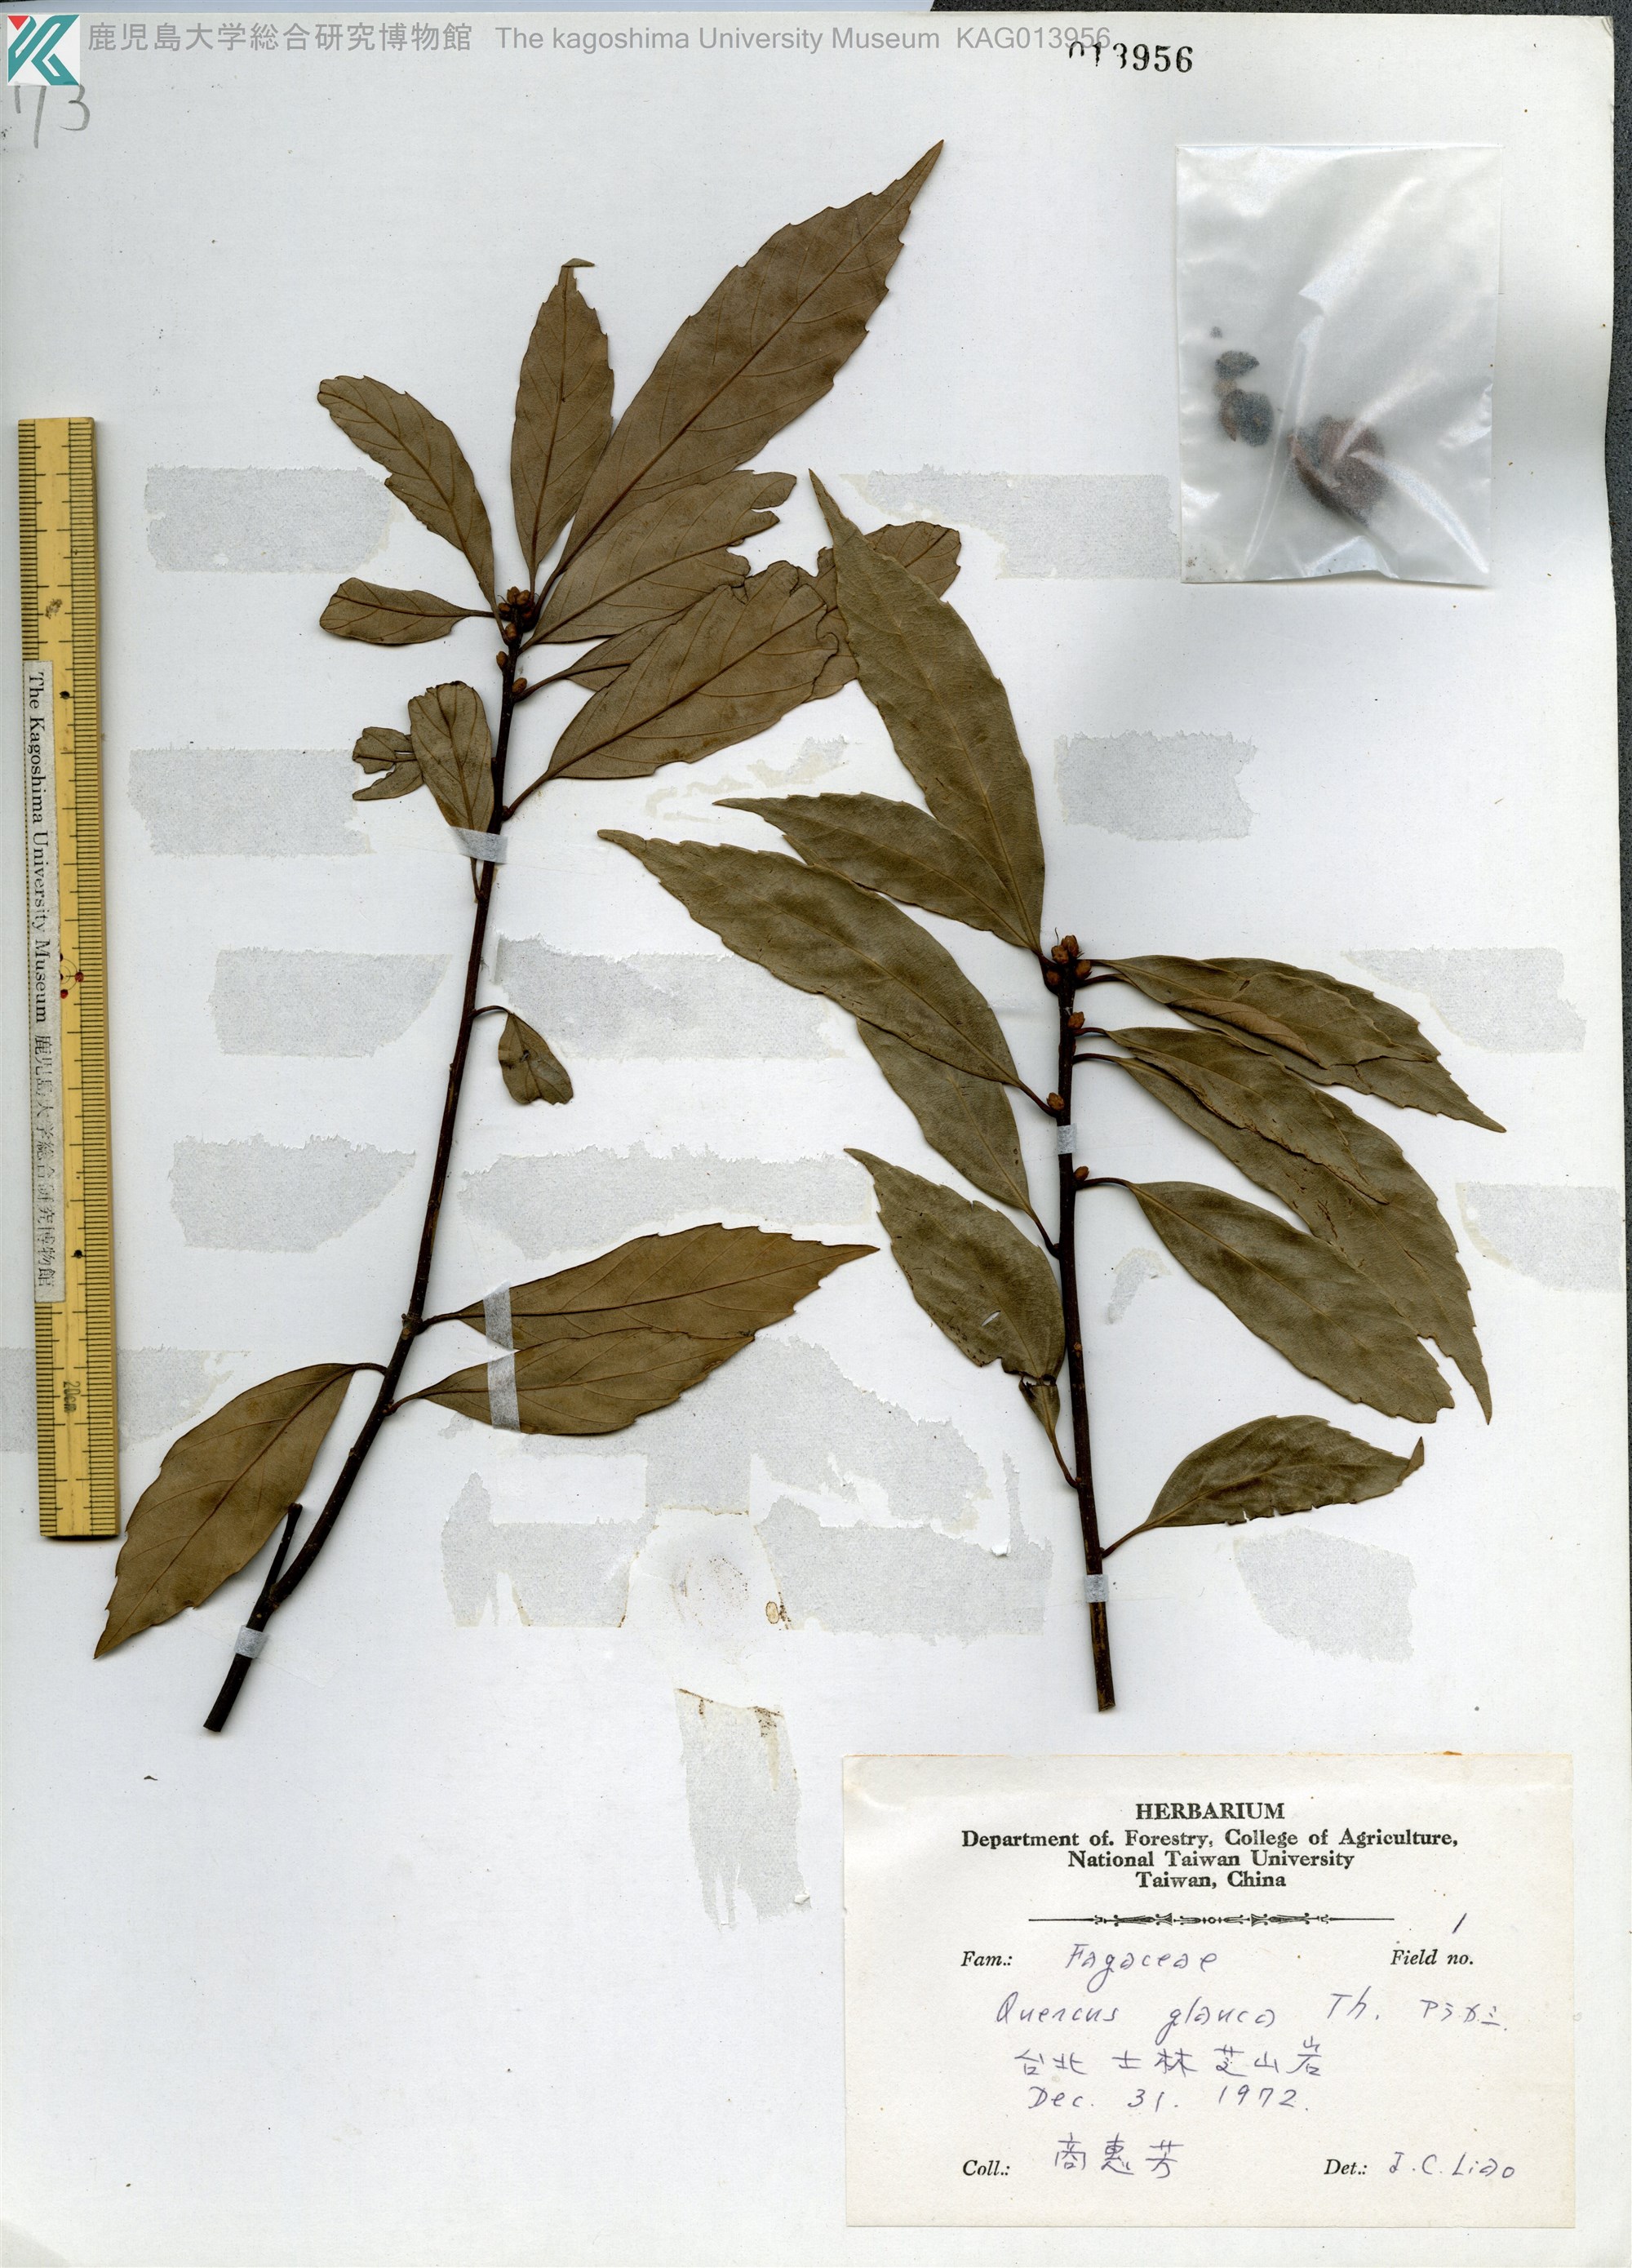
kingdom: Plantae
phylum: Tracheophyta
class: Magnoliopsida
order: Fagales
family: Fagaceae
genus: Quercus
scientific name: Quercus glauca
